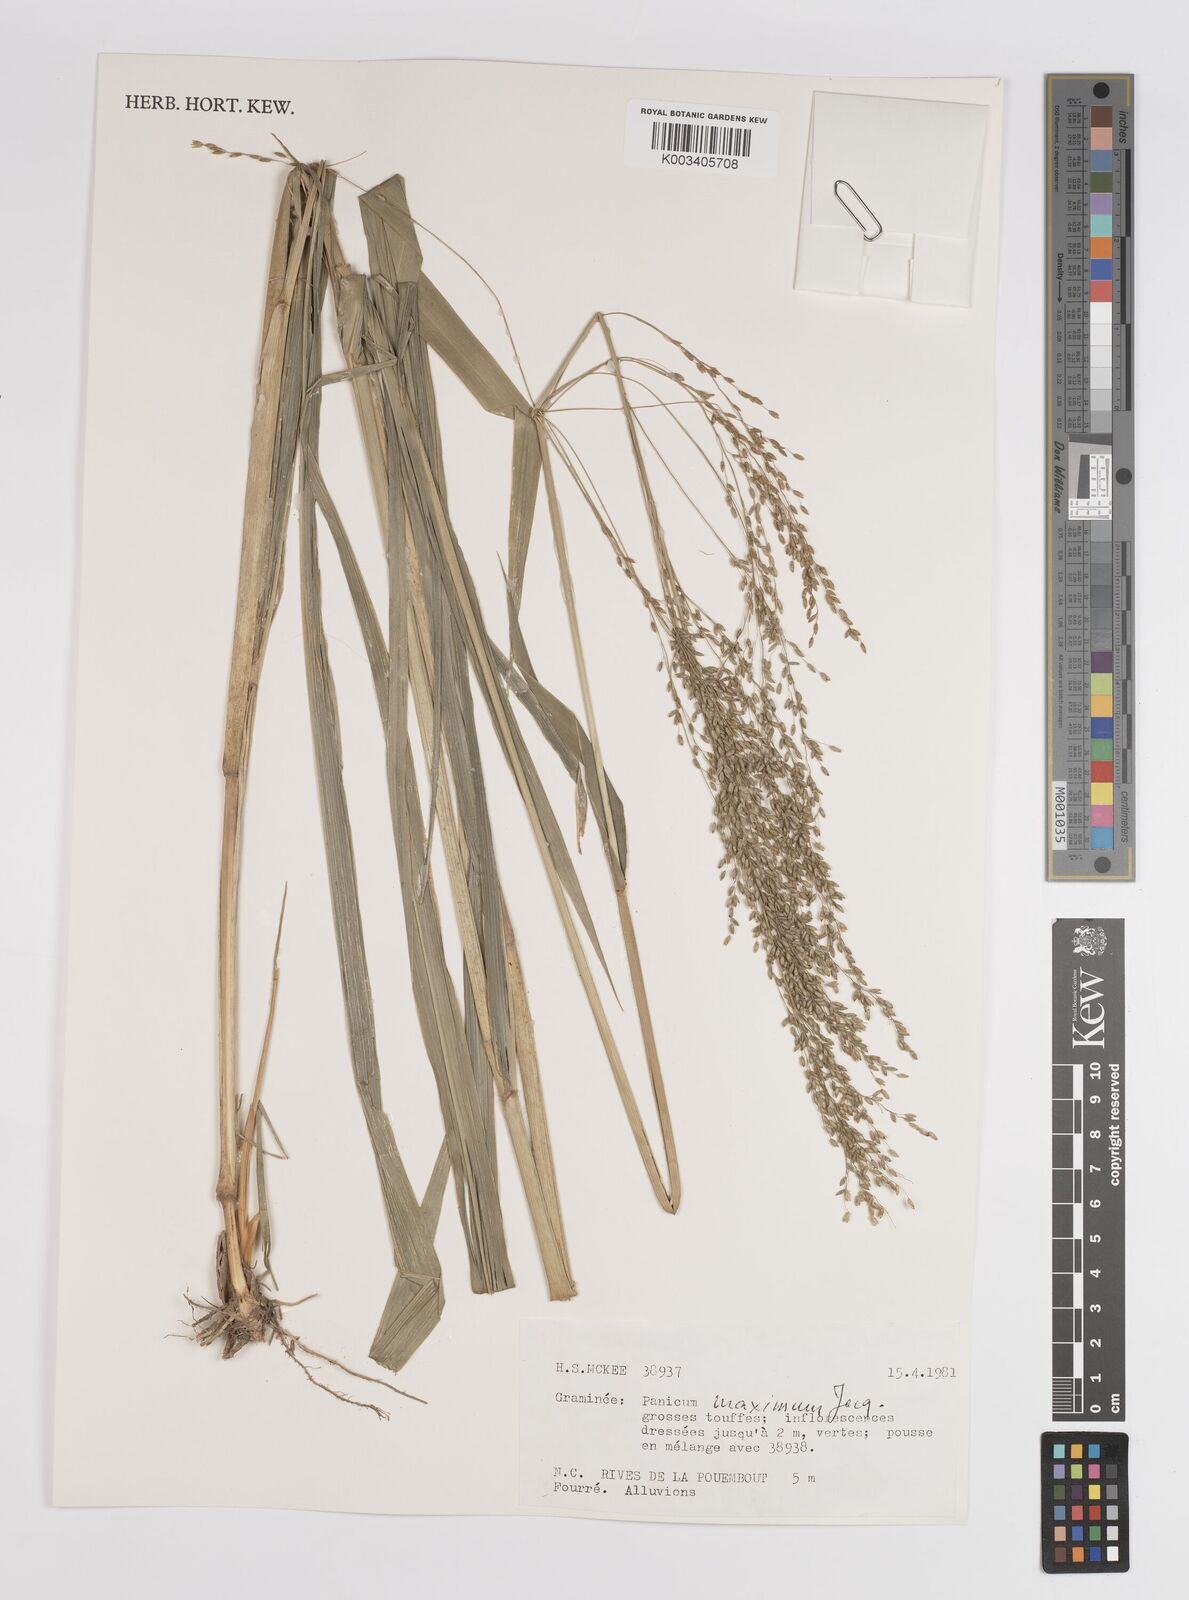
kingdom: Plantae
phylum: Tracheophyta
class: Liliopsida
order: Poales
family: Poaceae
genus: Megathyrsus
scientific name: Megathyrsus maximus
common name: Guineagrass
